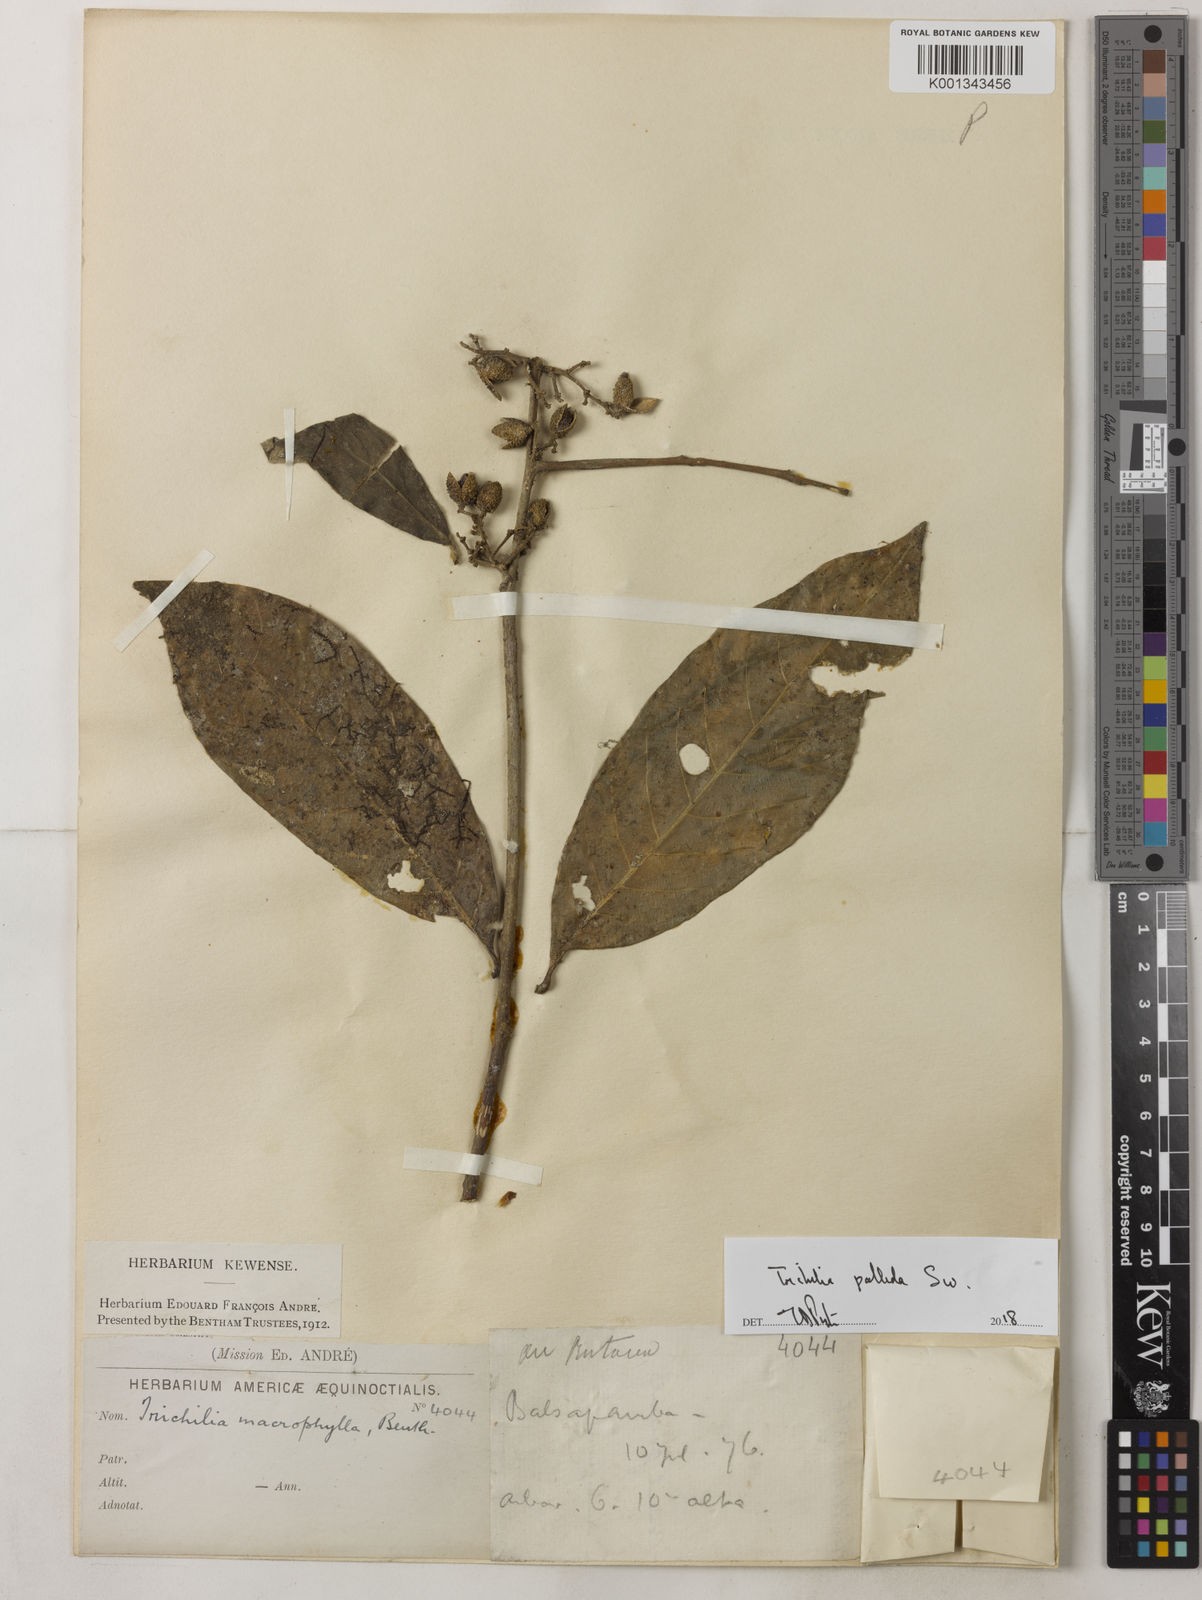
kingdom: Plantae
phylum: Tracheophyta
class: Magnoliopsida
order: Sapindales
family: Meliaceae
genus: Trichilia
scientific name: Trichilia pallida
